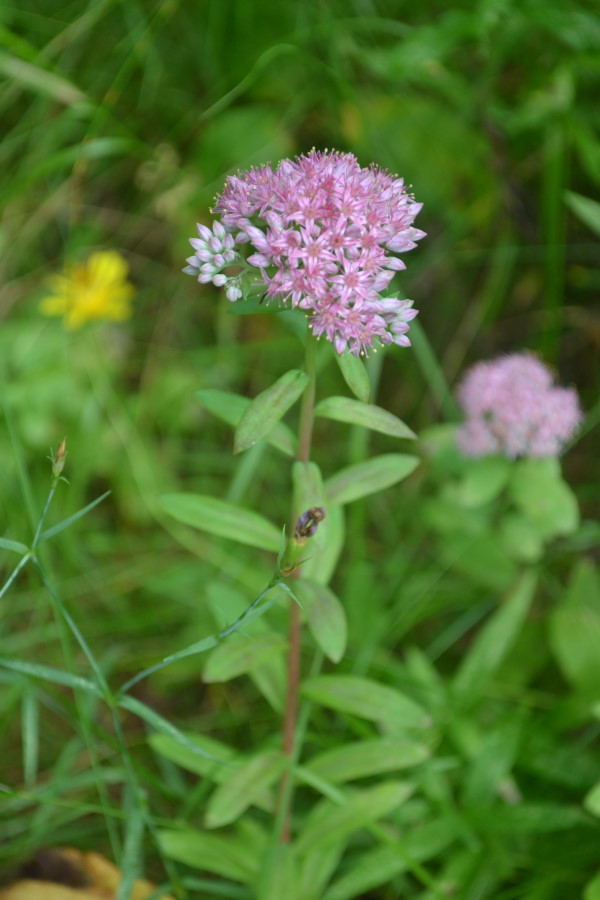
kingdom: Plantae
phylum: Tracheophyta
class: Magnoliopsida
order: Saxifragales
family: Crassulaceae
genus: Hylotelephium
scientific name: Hylotelephium telephium
